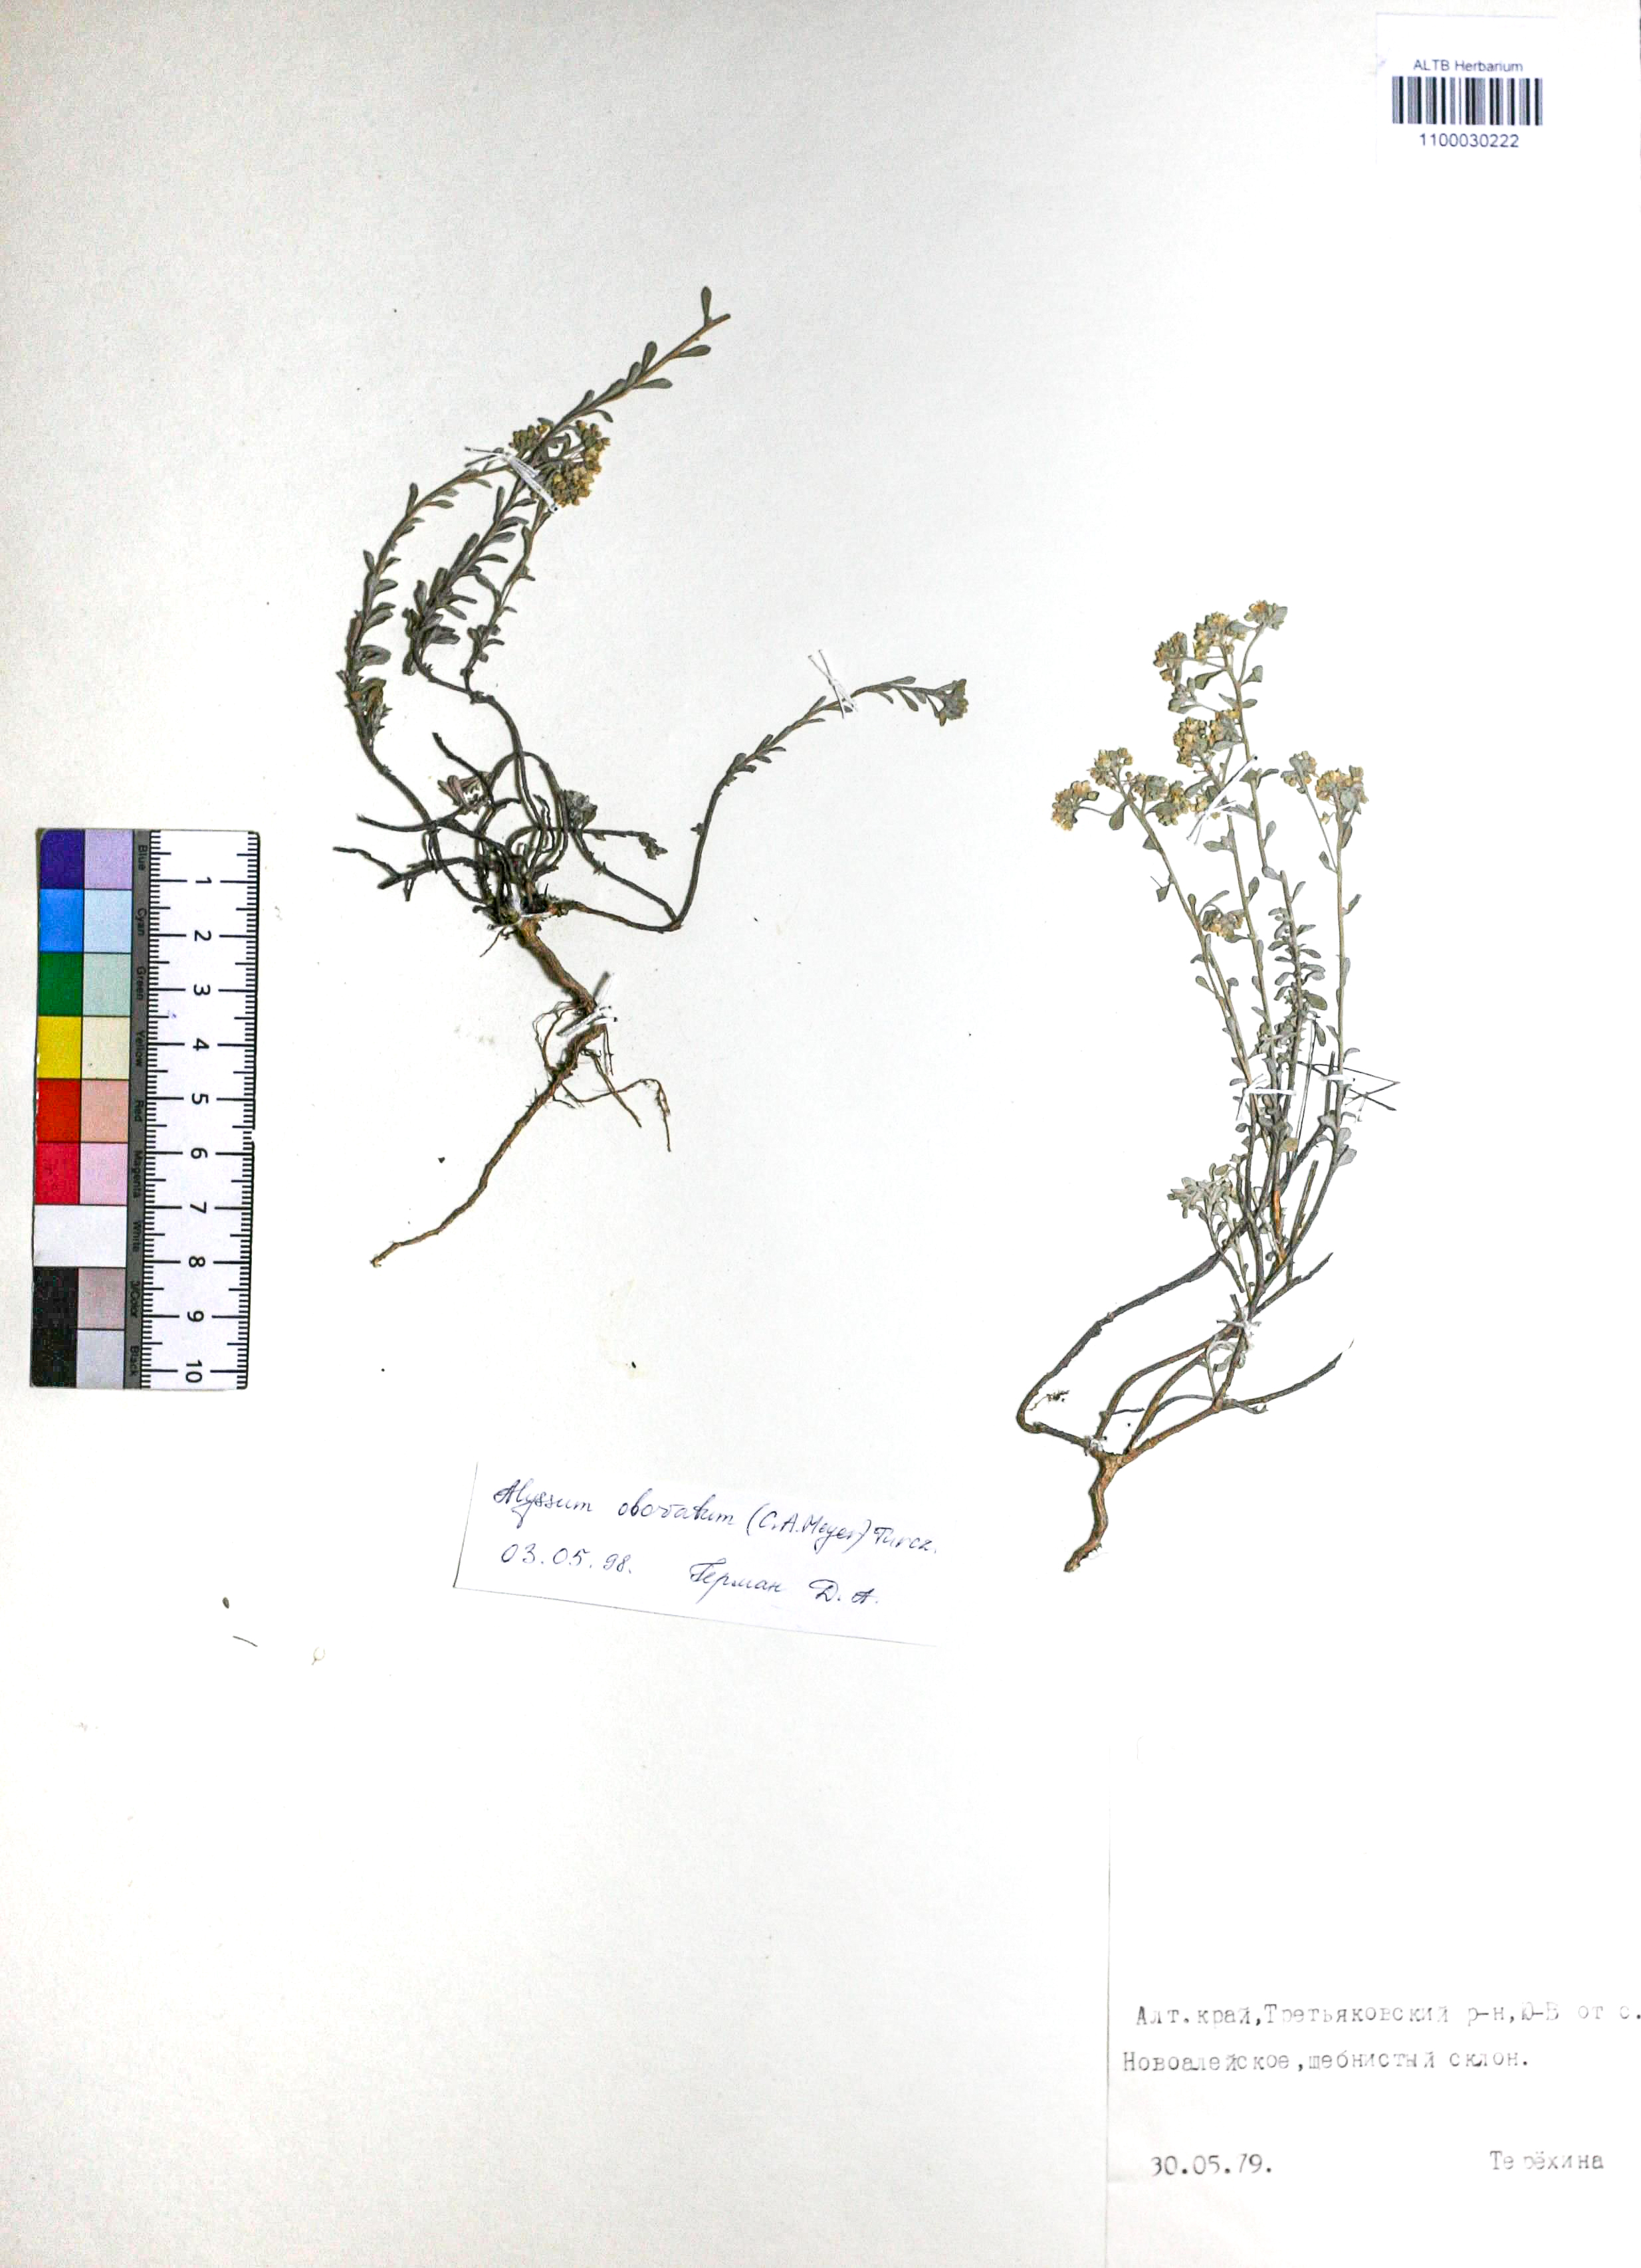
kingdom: Plantae
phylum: Tracheophyta
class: Magnoliopsida
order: Brassicales
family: Brassicaceae
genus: Odontarrhena
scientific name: Odontarrhena obovata
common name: American alyssum
